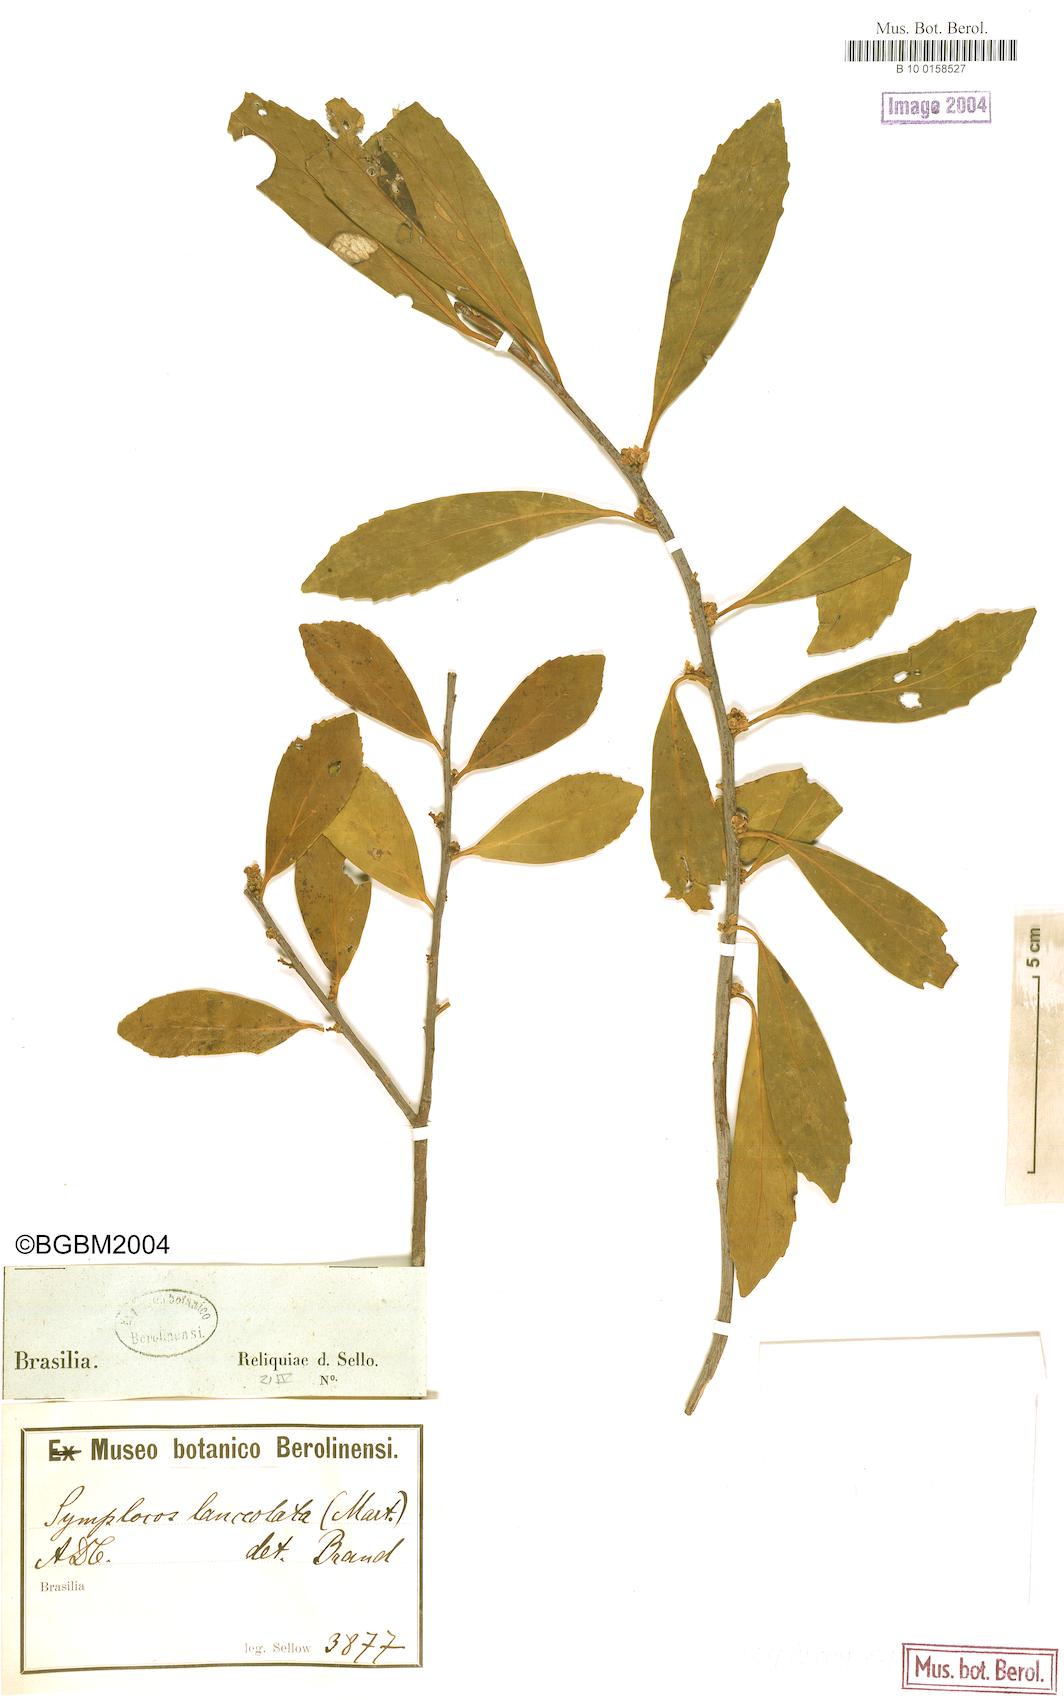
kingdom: Plantae
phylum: Tracheophyta
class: Magnoliopsida
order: Ericales
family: Symplocaceae
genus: Symplocos
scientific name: Symplocos oblongifolia
